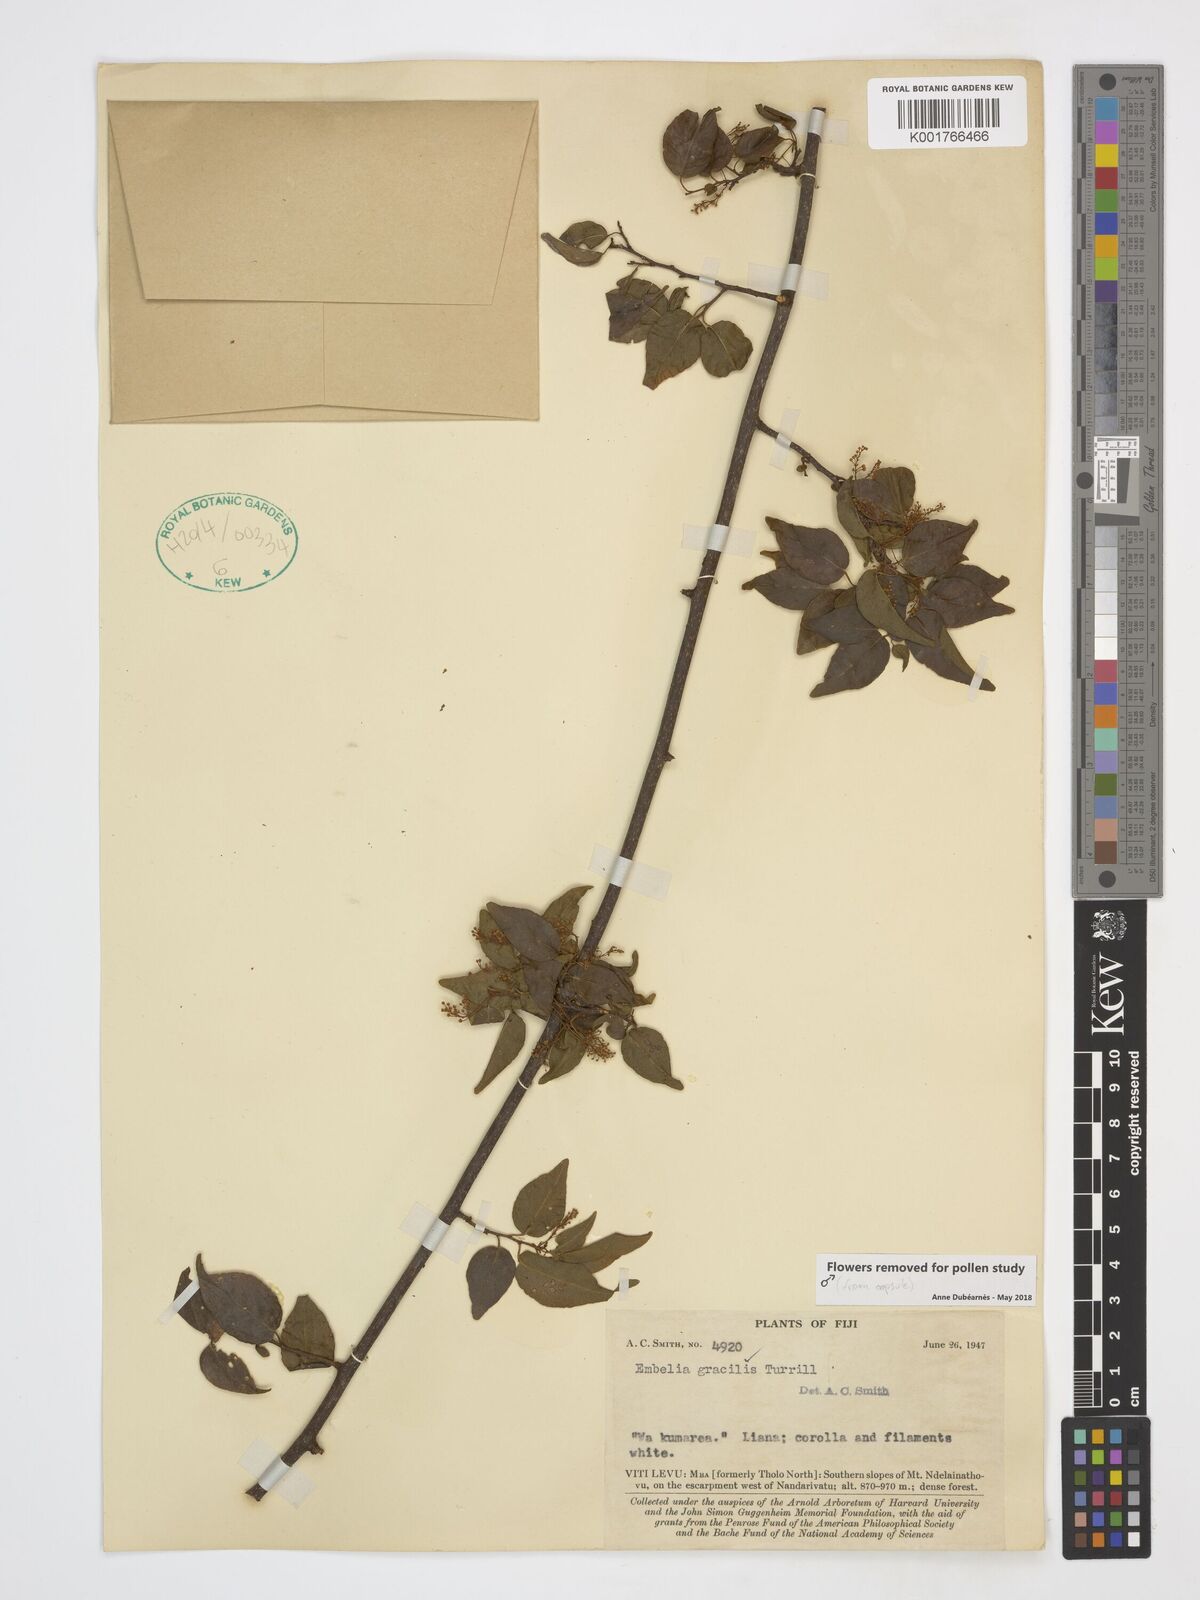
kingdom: Plantae
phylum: Tracheophyta
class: Magnoliopsida
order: Ericales
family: Primulaceae
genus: Embelia
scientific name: Embelia gracilis
